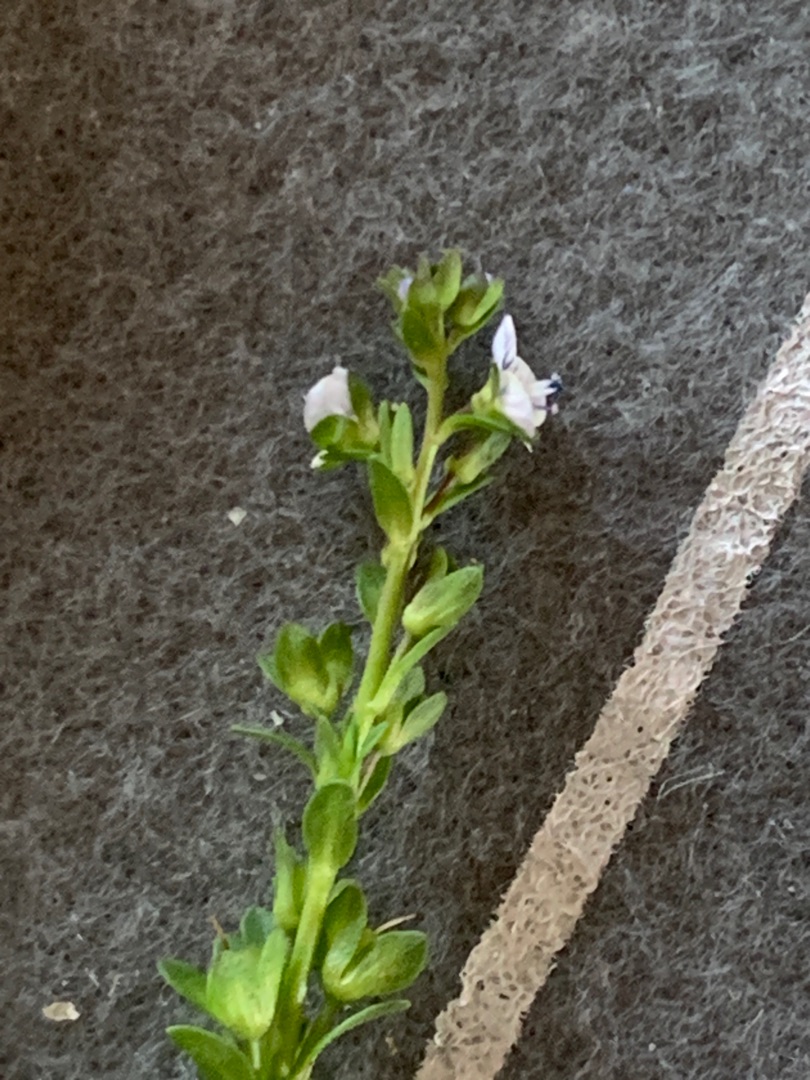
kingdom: Plantae
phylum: Tracheophyta
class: Magnoliopsida
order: Lamiales
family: Plantaginaceae
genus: Veronica
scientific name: Veronica serpyllifolia
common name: Glat ærenpris
